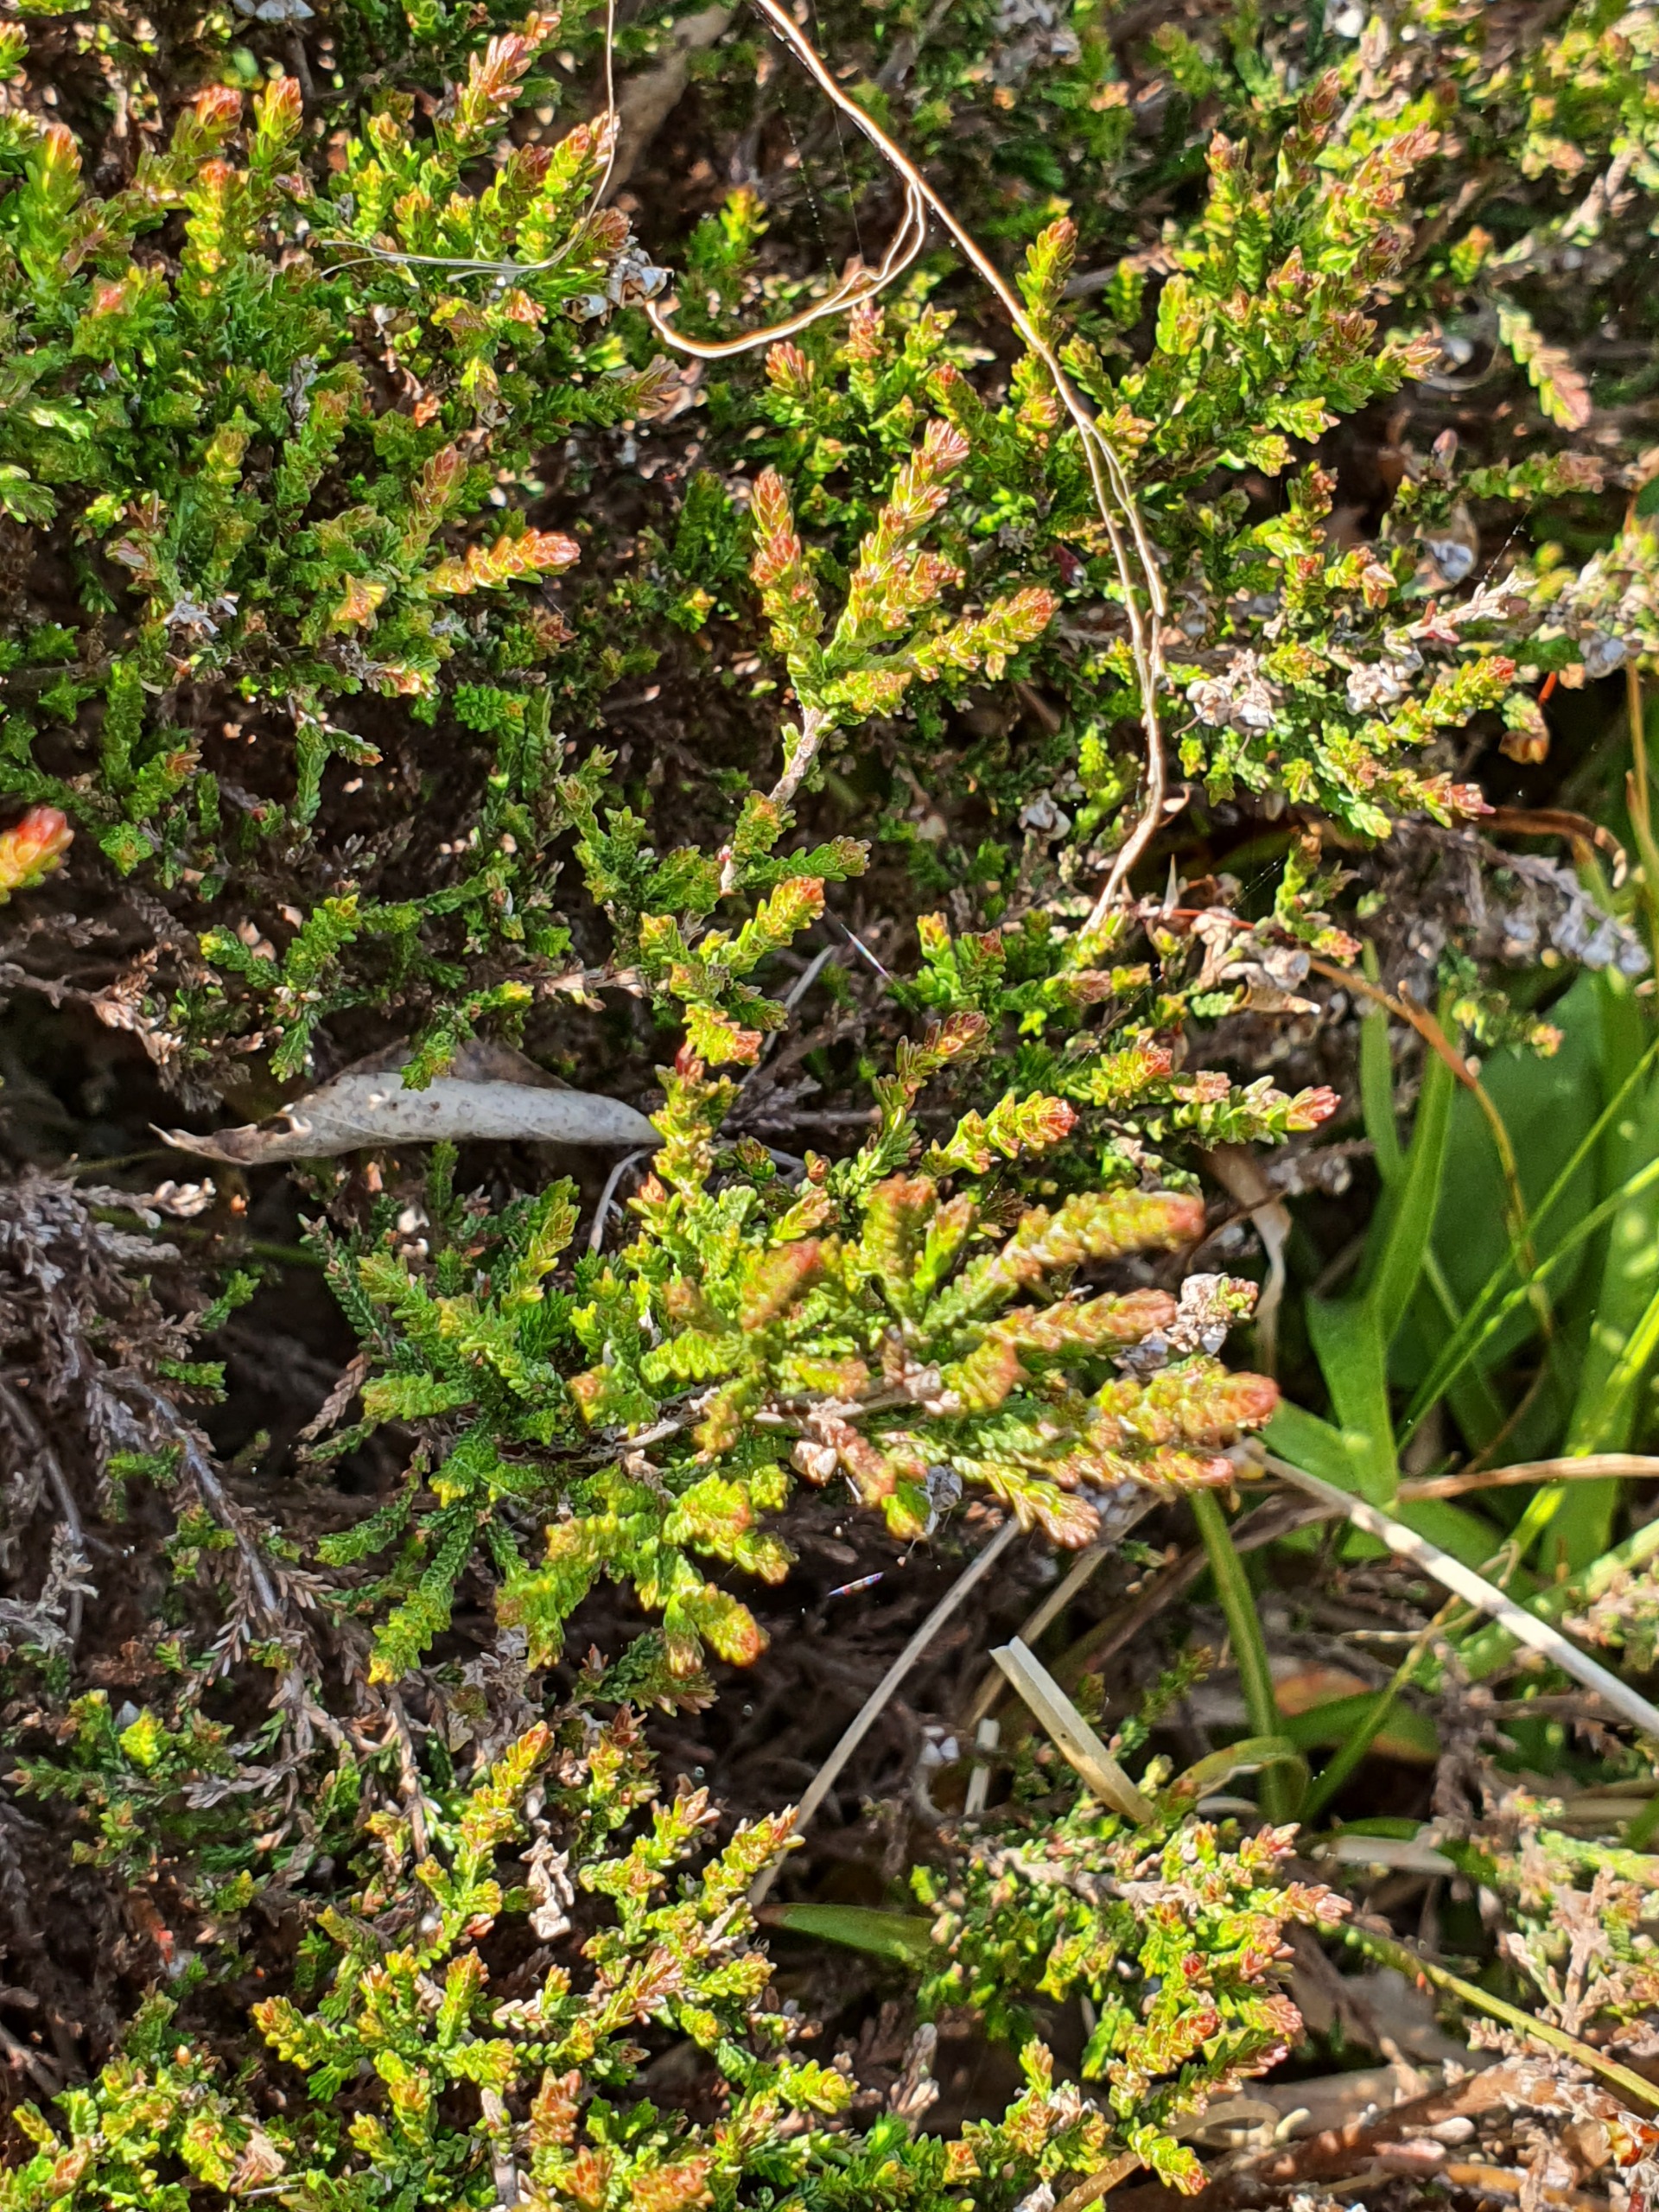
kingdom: Plantae
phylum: Tracheophyta
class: Magnoliopsida
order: Ericales
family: Ericaceae
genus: Calluna
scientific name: Calluna vulgaris
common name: Hedelyng
